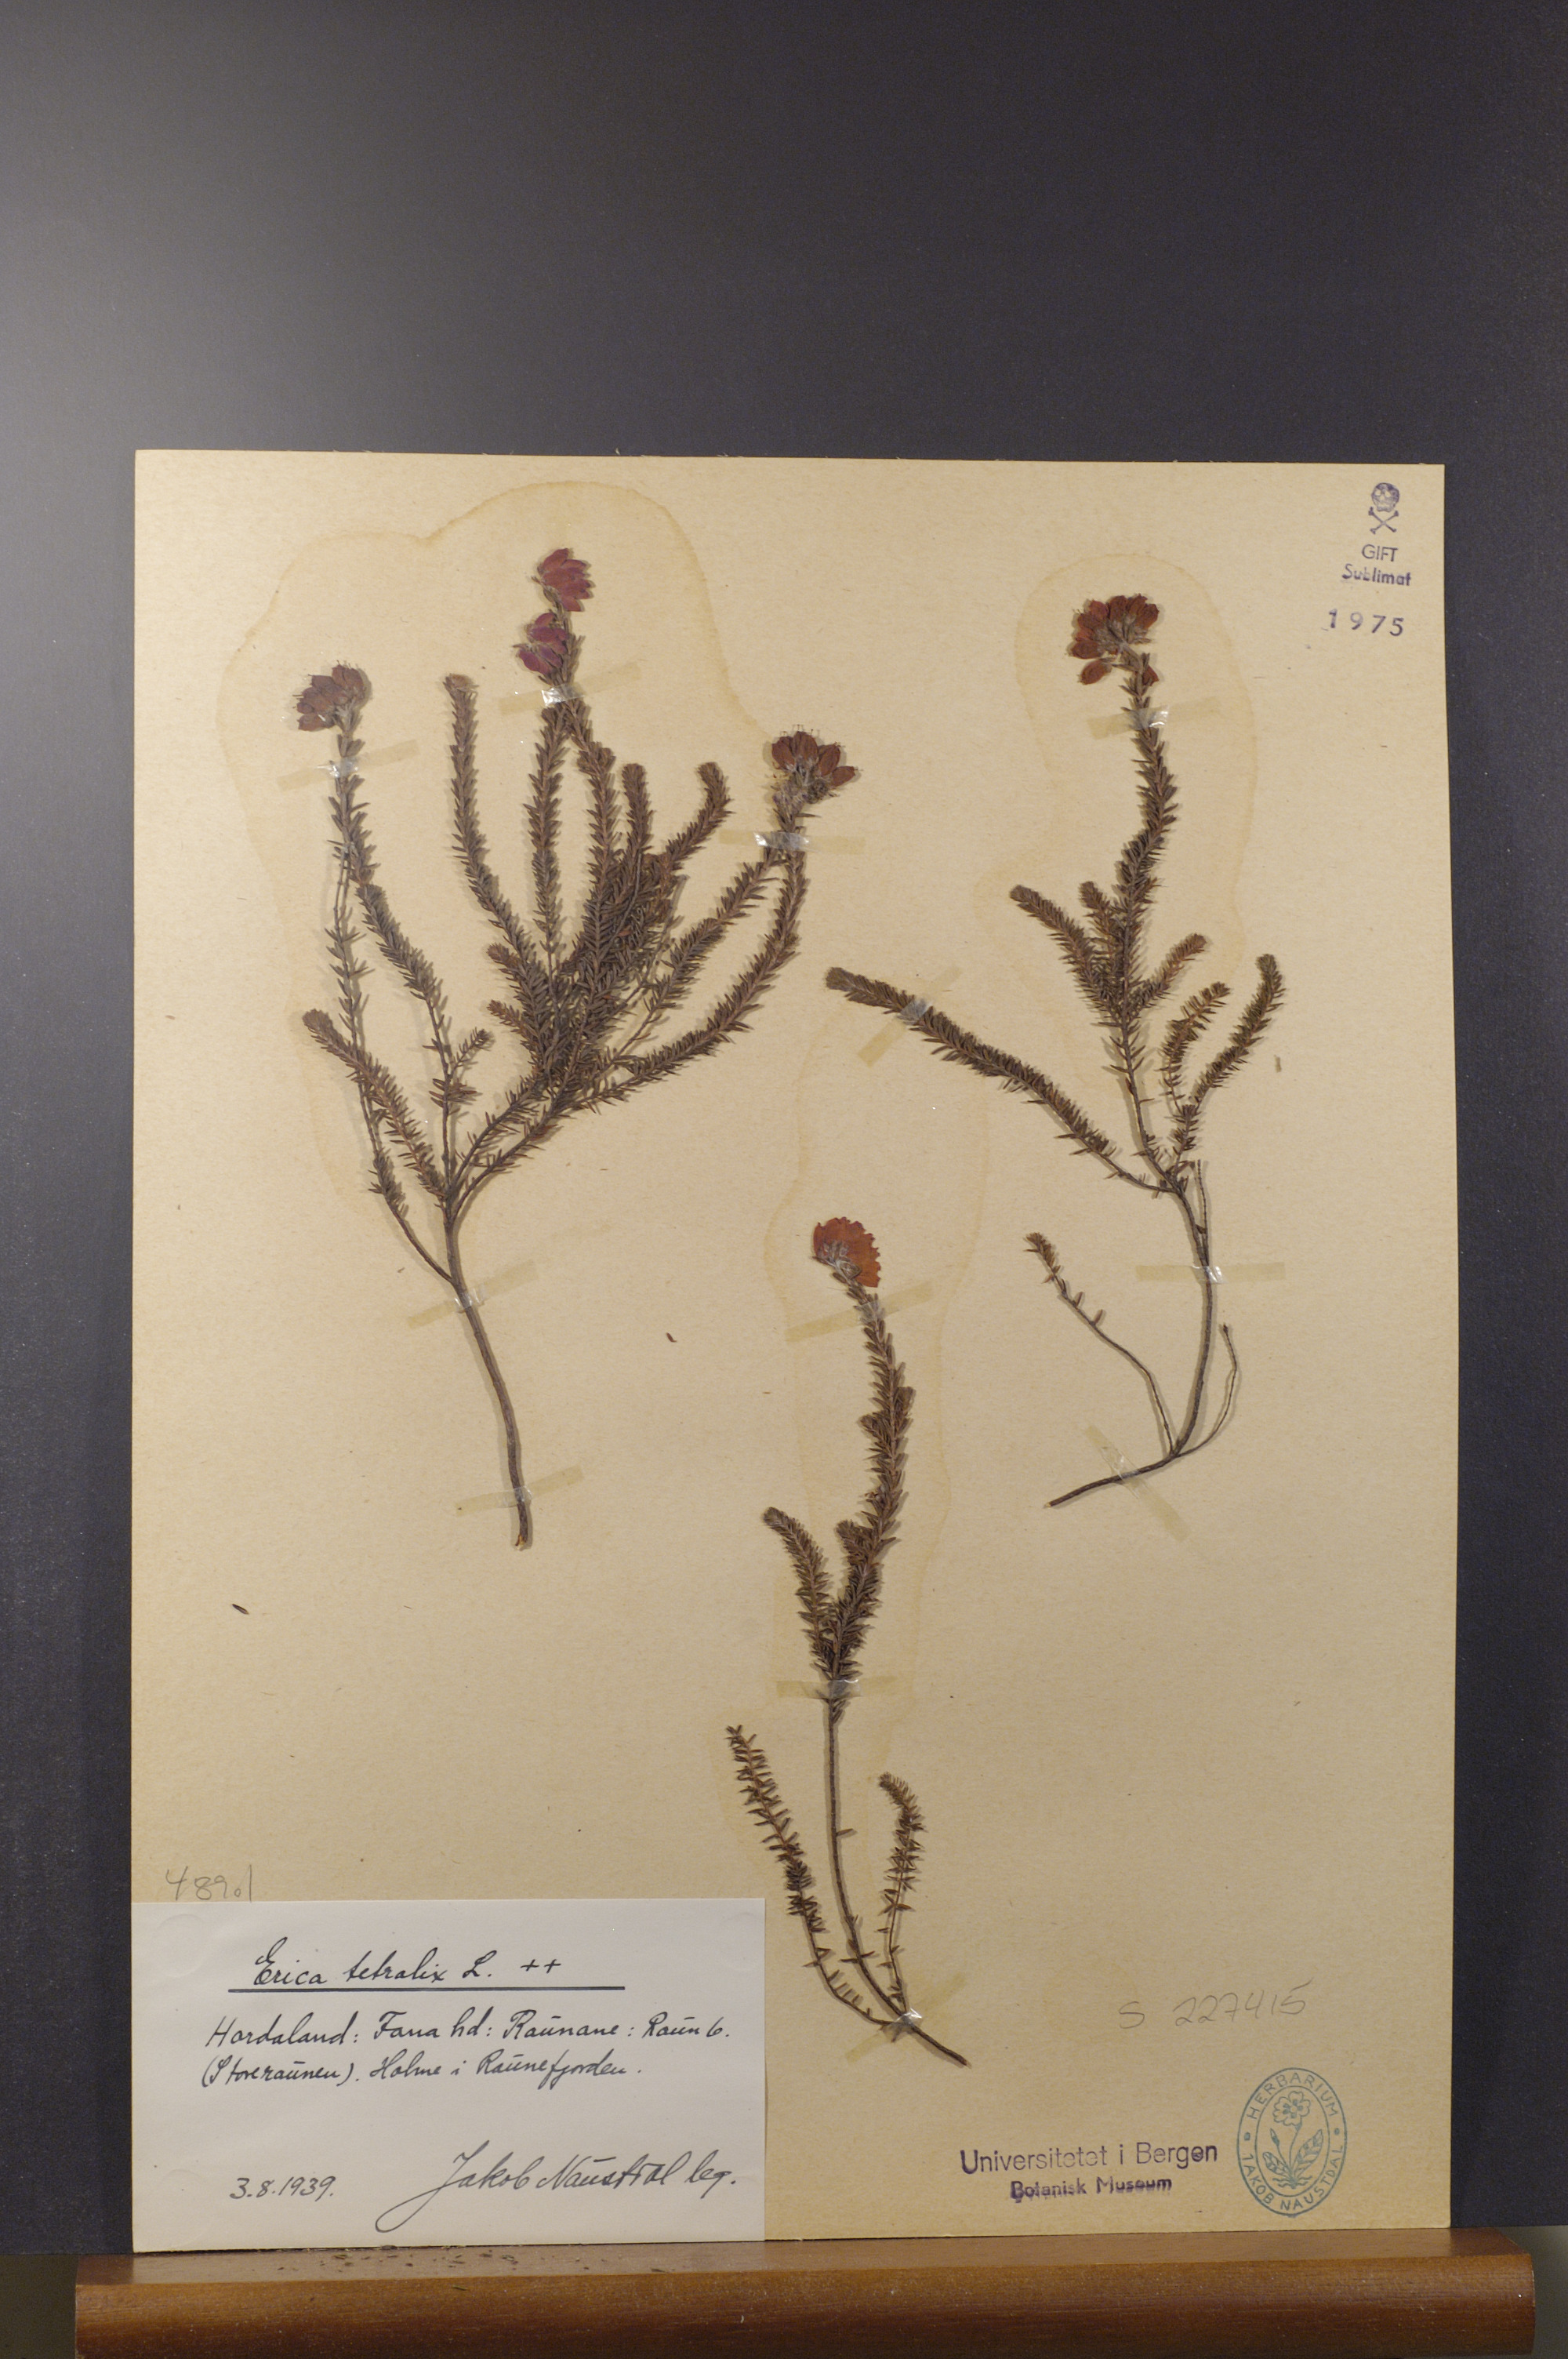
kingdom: Plantae
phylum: Tracheophyta
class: Magnoliopsida
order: Ericales
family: Ericaceae
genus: Erica
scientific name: Erica tetralix
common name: Cross-leaved heath
